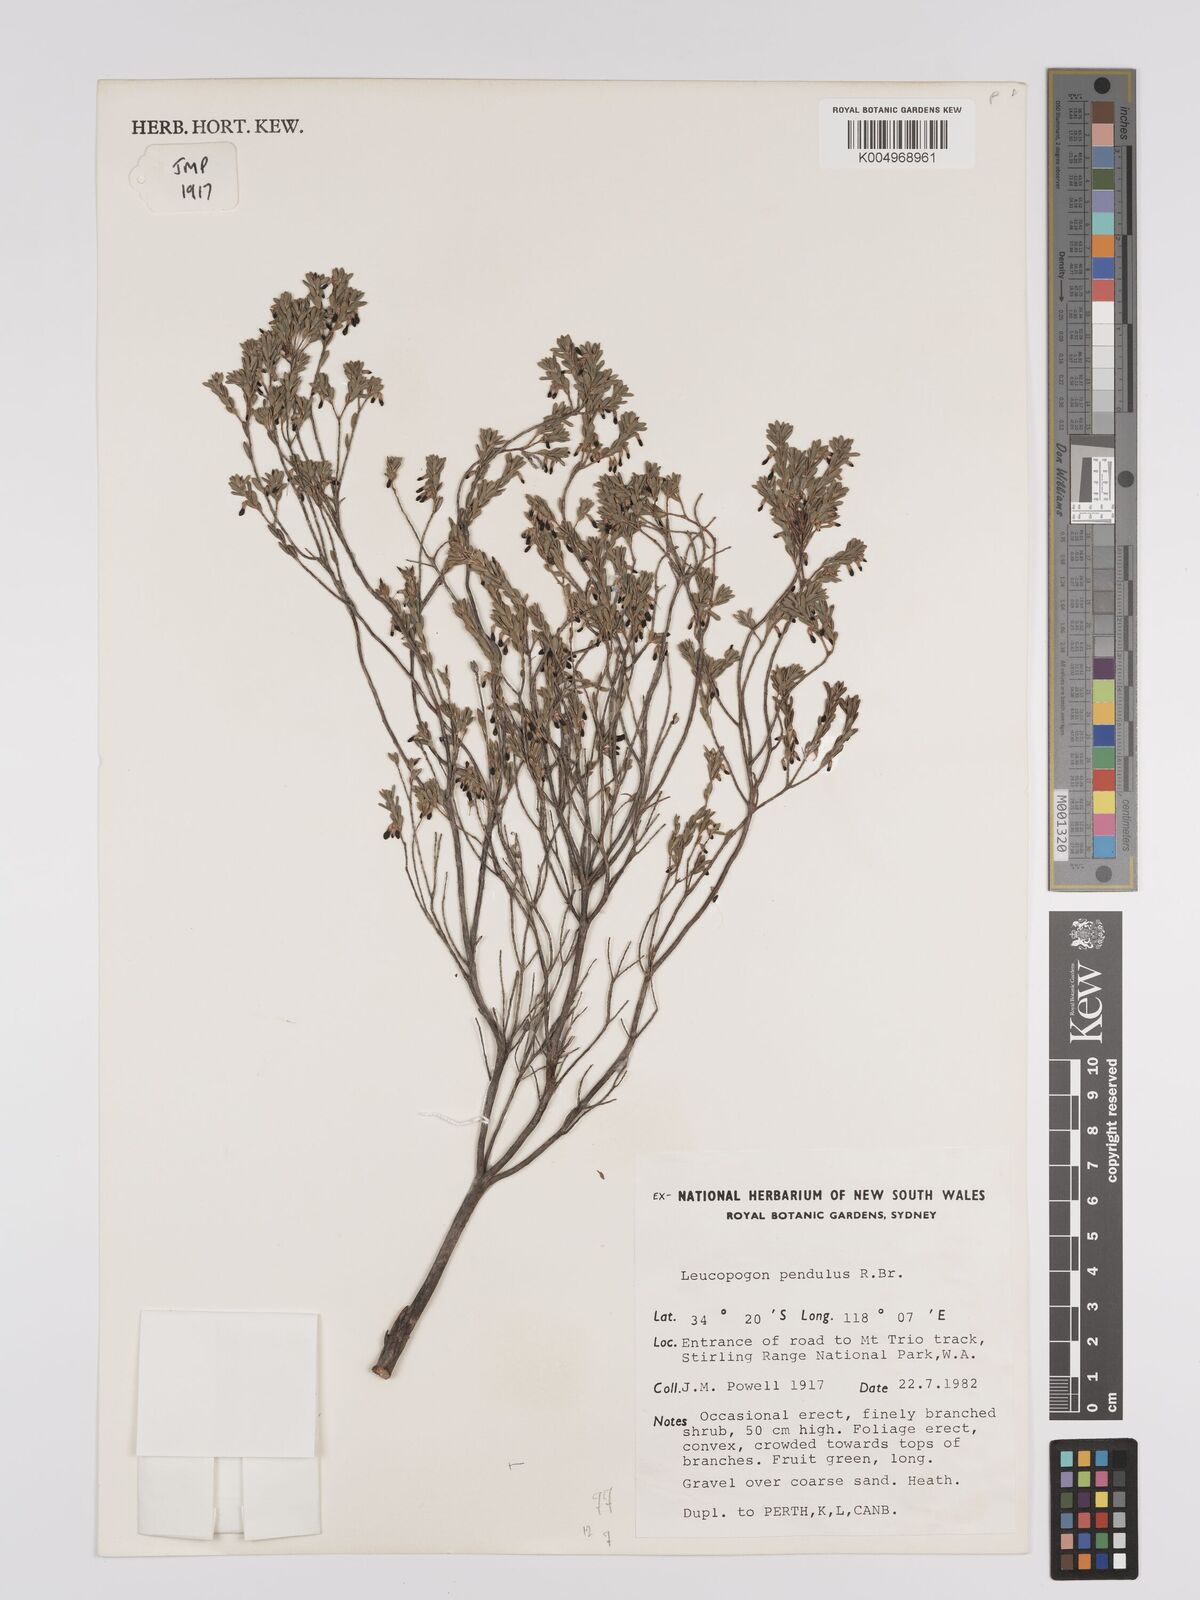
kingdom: Plantae
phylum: Tracheophyta
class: Magnoliopsida
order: Ericales
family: Ericaceae
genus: Styphelia
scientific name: Styphelia pendula
